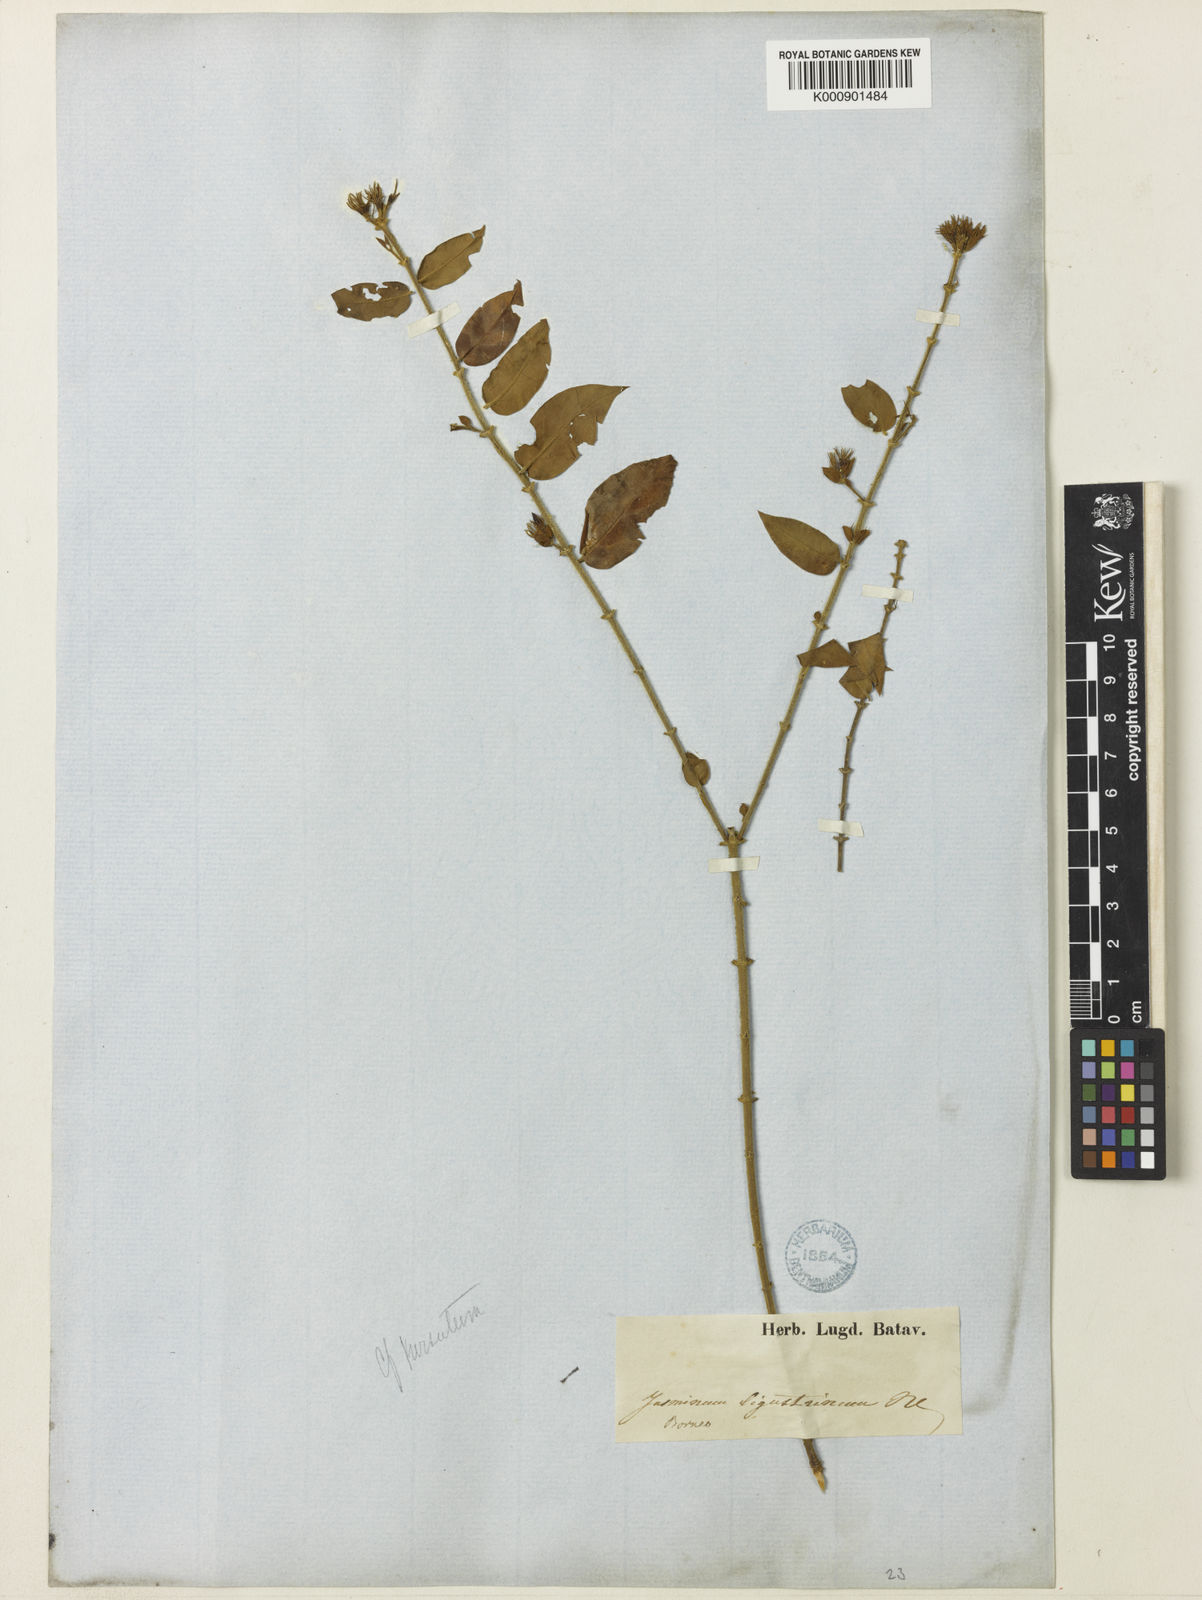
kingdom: Plantae
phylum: Tracheophyta
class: Magnoliopsida
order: Lamiales
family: Oleaceae
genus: Jasminum
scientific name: Jasminum elongatum
